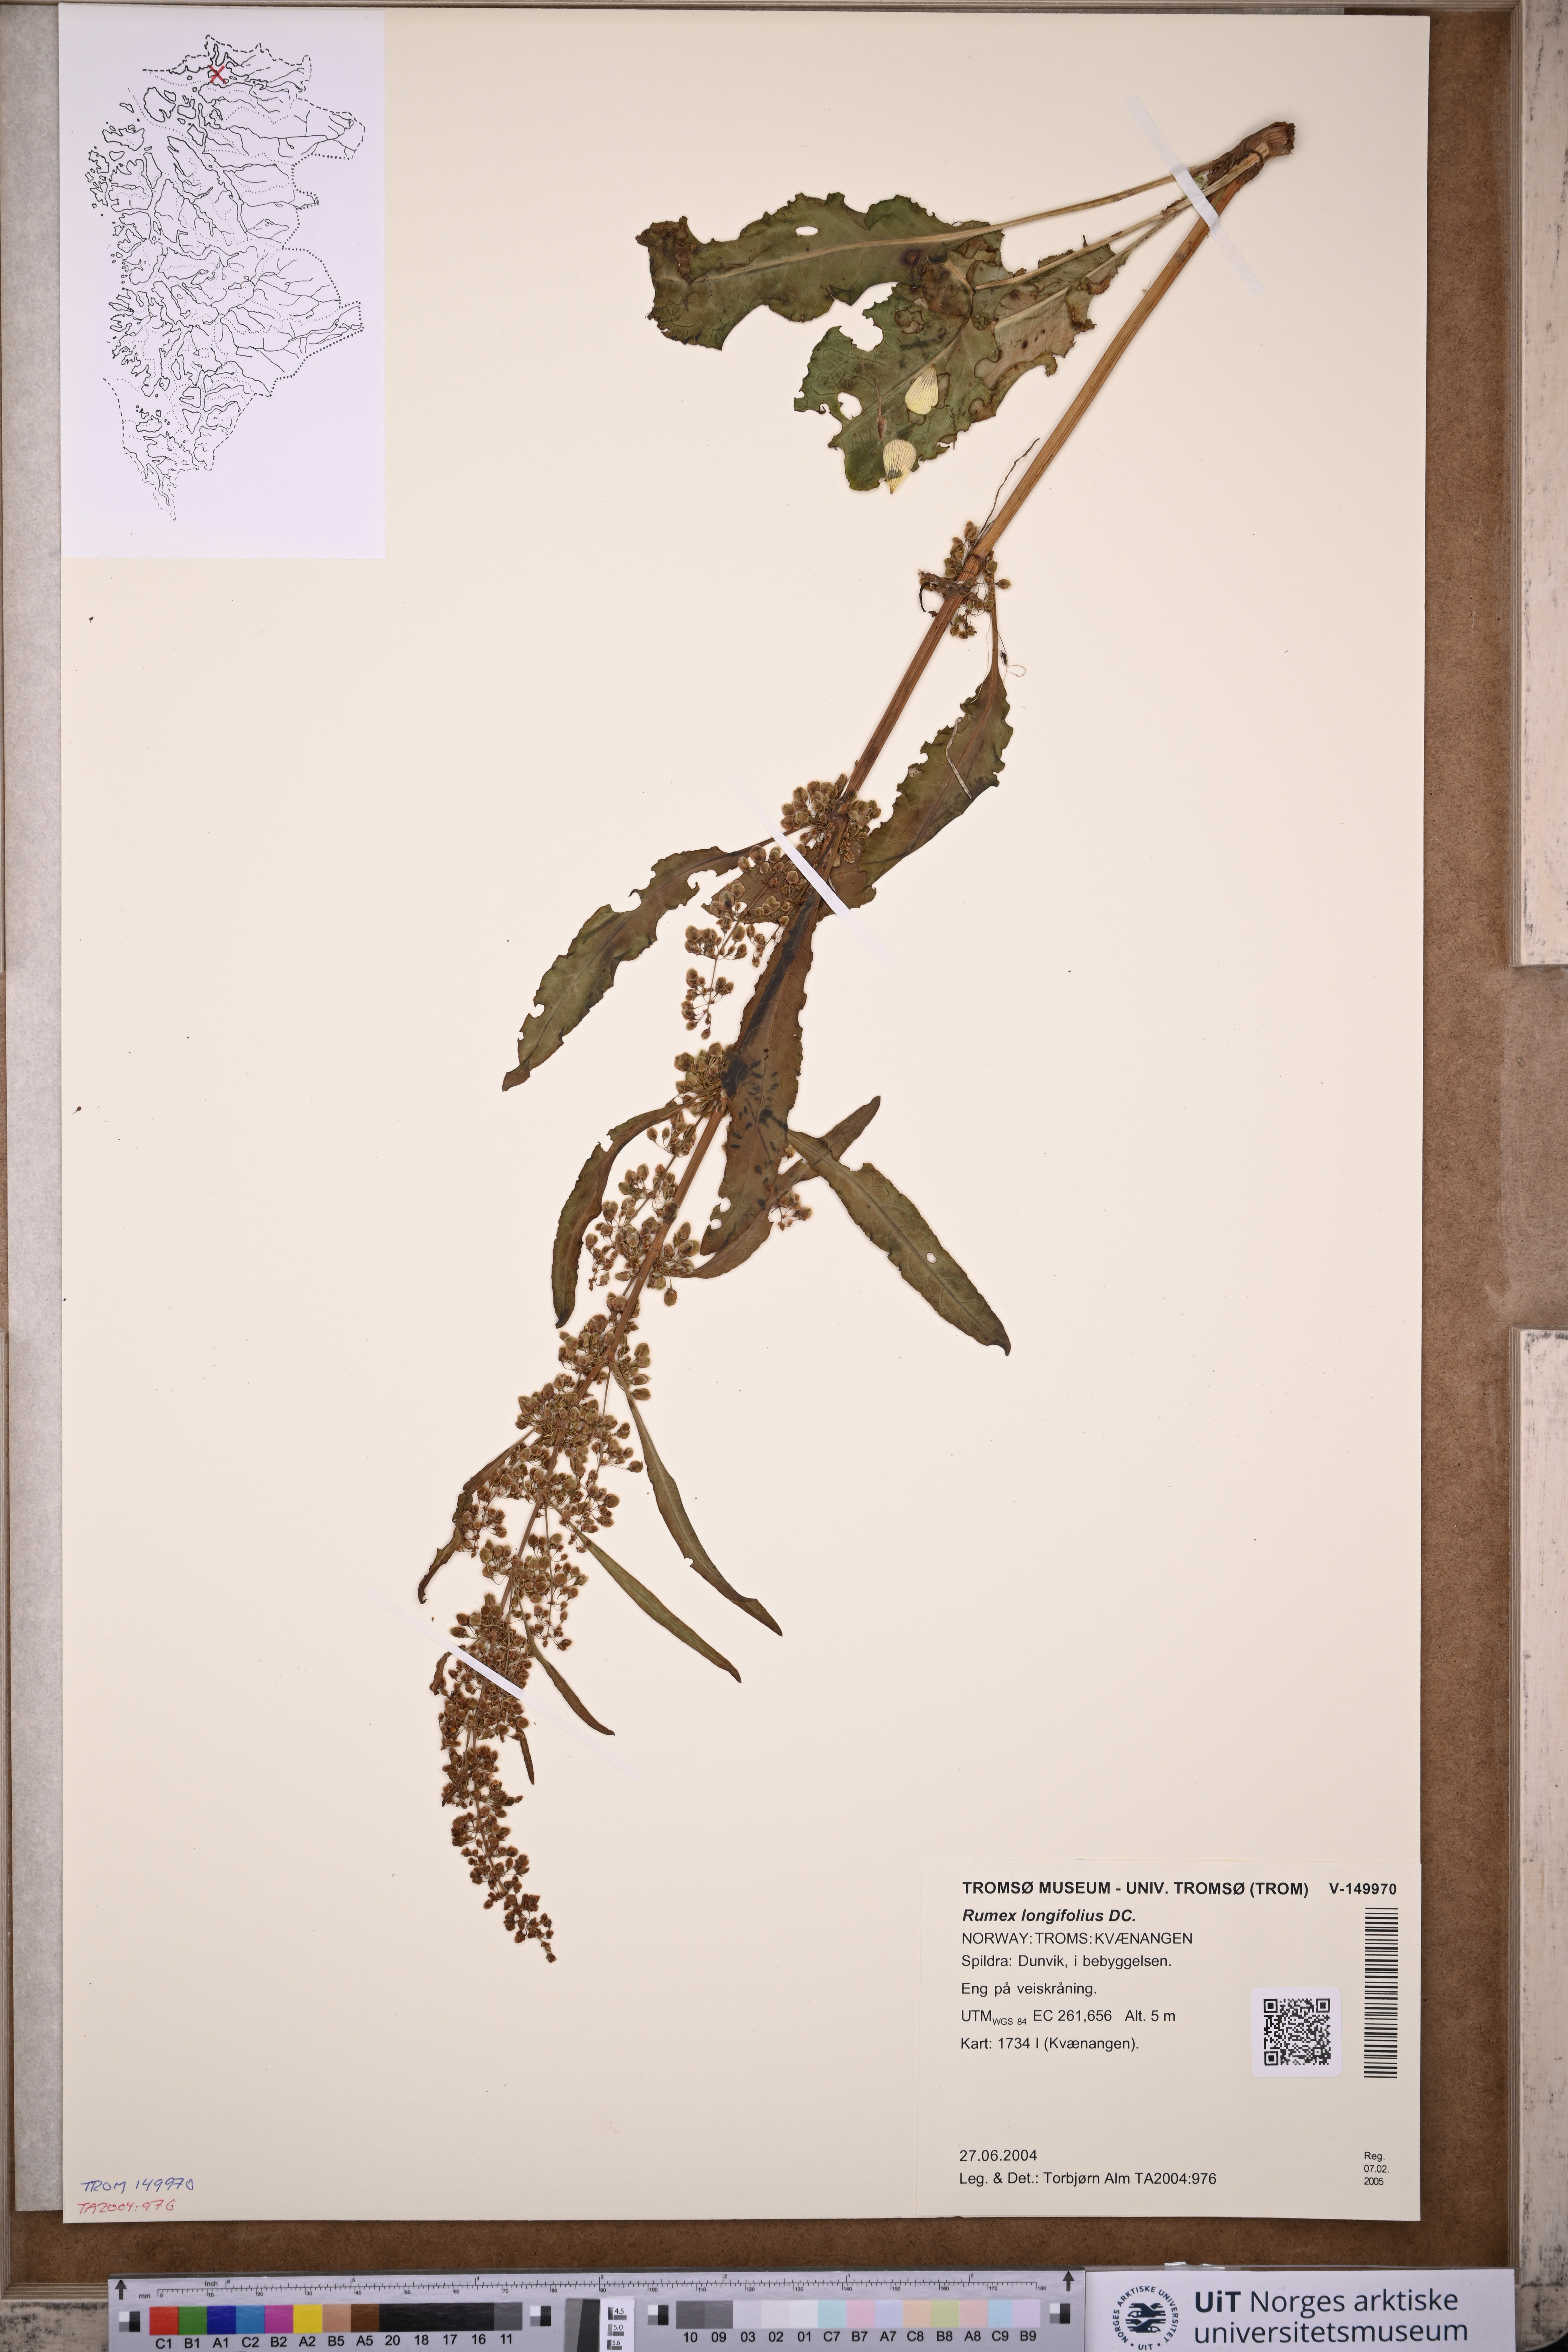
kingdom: Plantae
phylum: Tracheophyta
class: Magnoliopsida
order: Caryophyllales
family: Polygonaceae
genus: Rumex
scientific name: Rumex longifolius
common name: Dooryard dock
